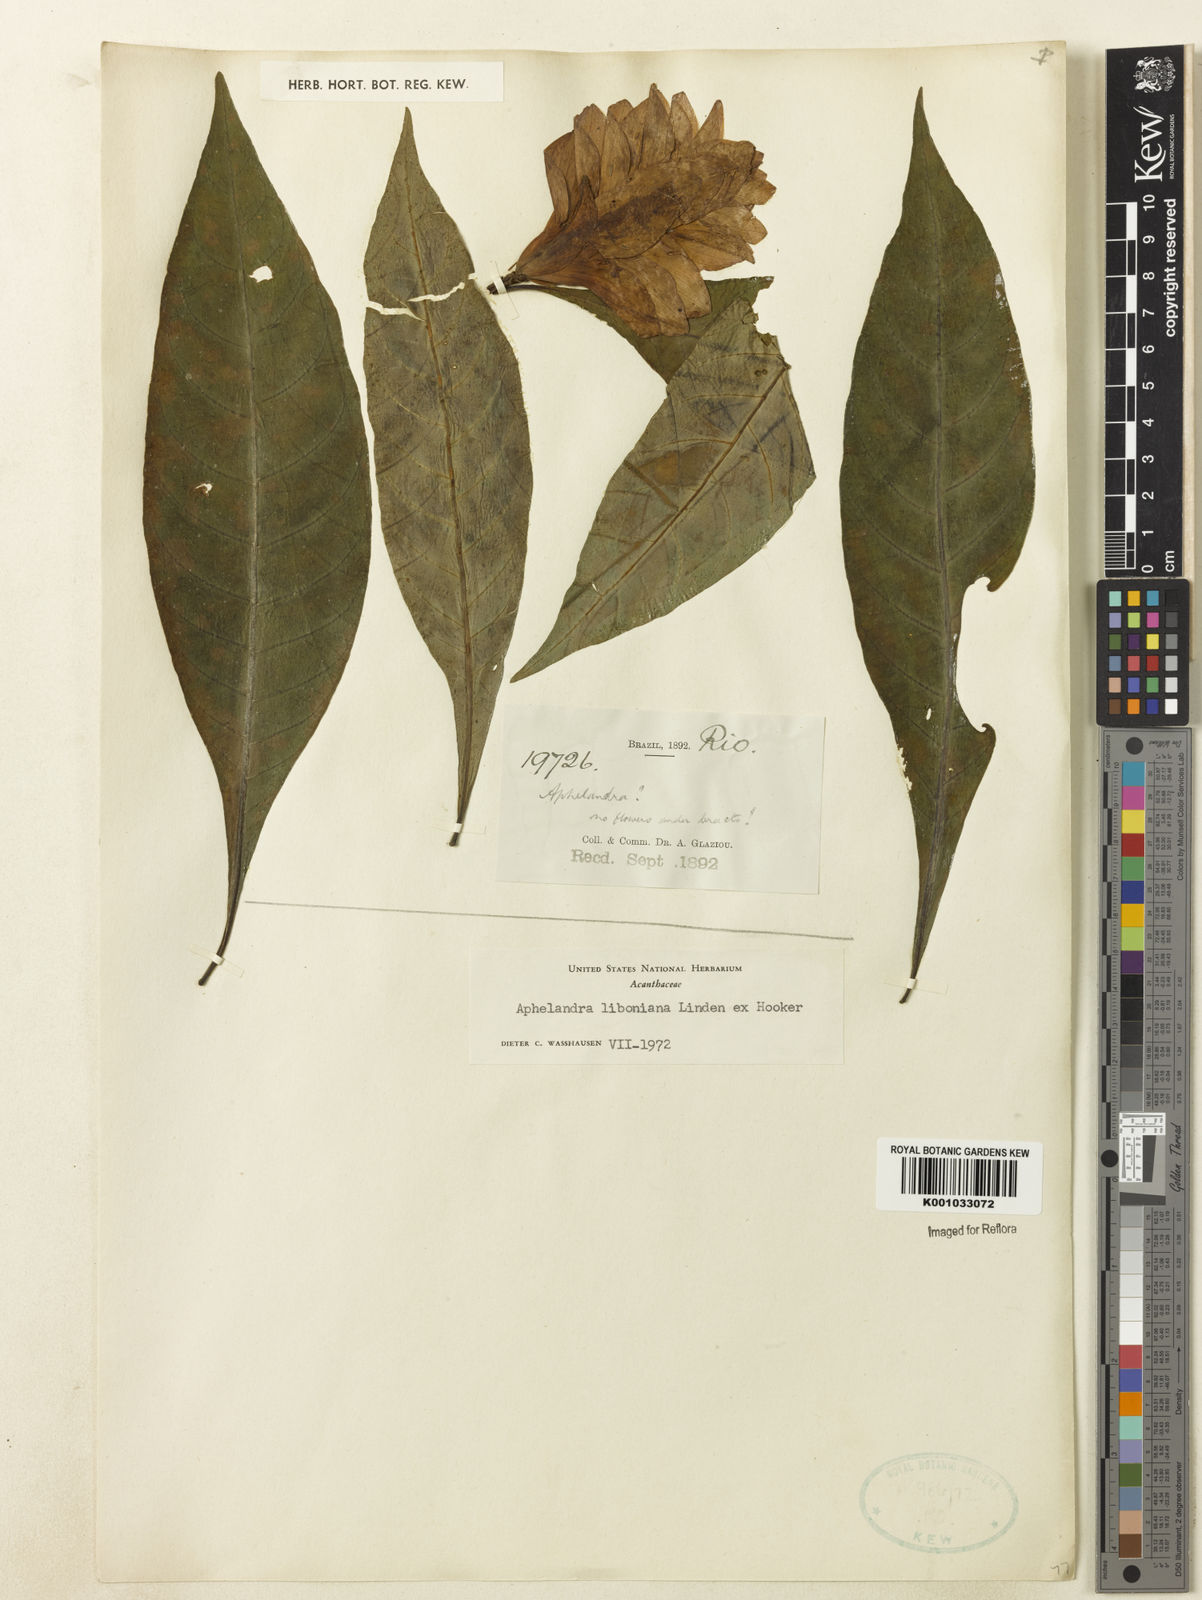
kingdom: Plantae
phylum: Tracheophyta
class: Magnoliopsida
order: Lamiales
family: Acanthaceae
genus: Aphelandra
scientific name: Aphelandra liboniana
